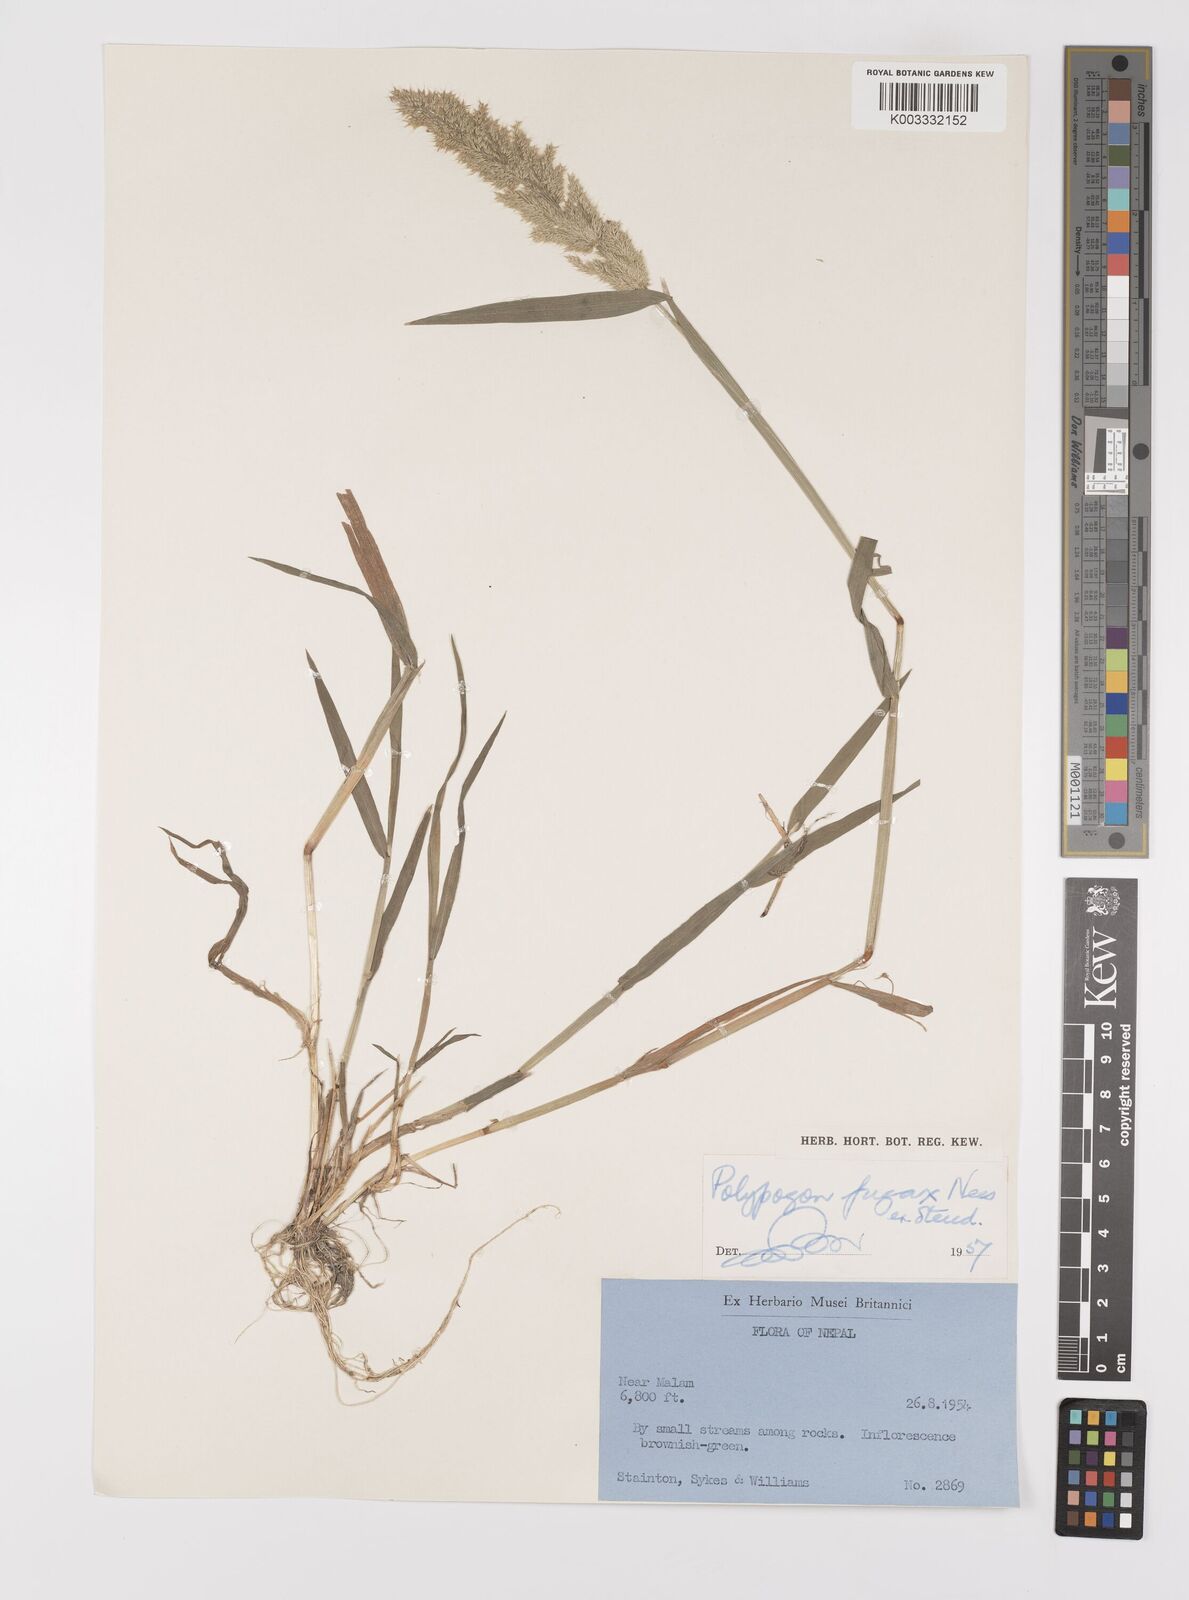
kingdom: Plantae
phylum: Tracheophyta
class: Liliopsida
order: Poales
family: Poaceae
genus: Polypogon
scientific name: Polypogon fugax
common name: Asia minor bluegrass
